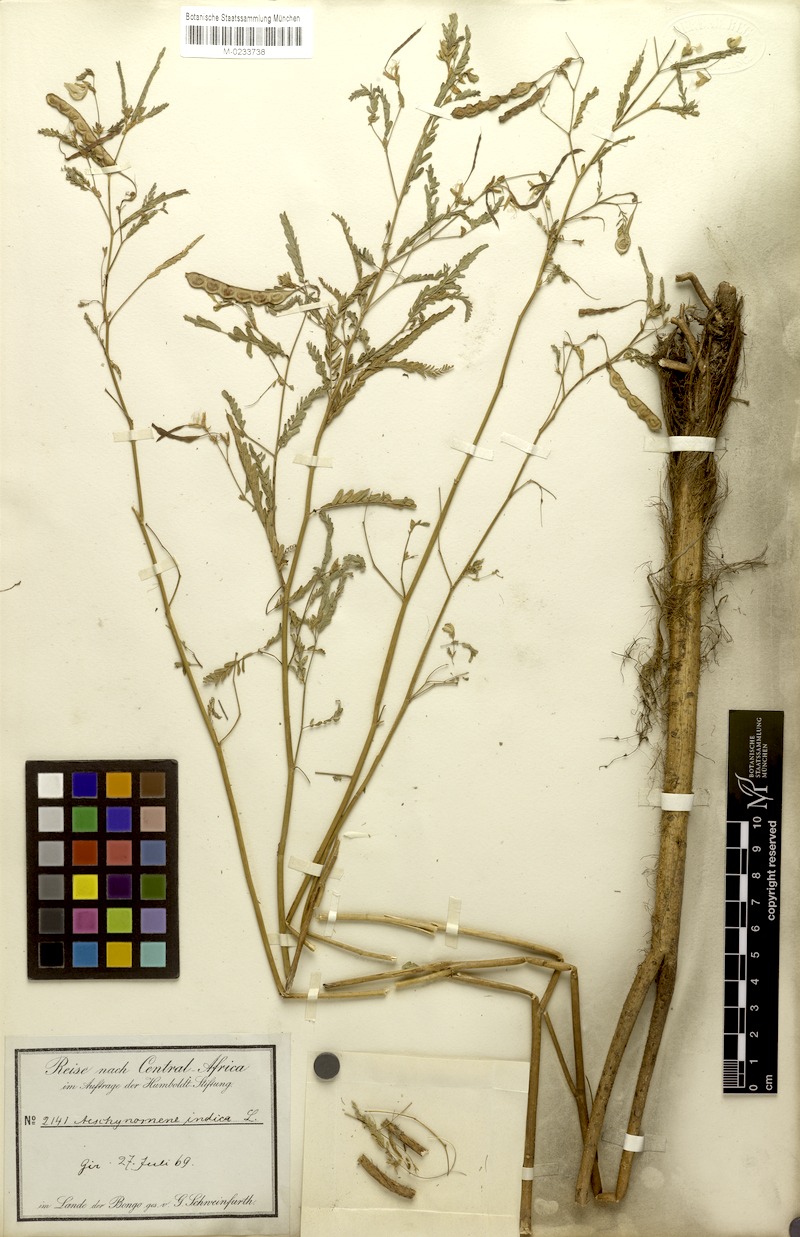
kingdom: Plantae
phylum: Tracheophyta
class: Magnoliopsida
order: Fabales
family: Fabaceae
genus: Aeschynomene
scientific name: Aeschynomene indica
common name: Indian jointvetch
